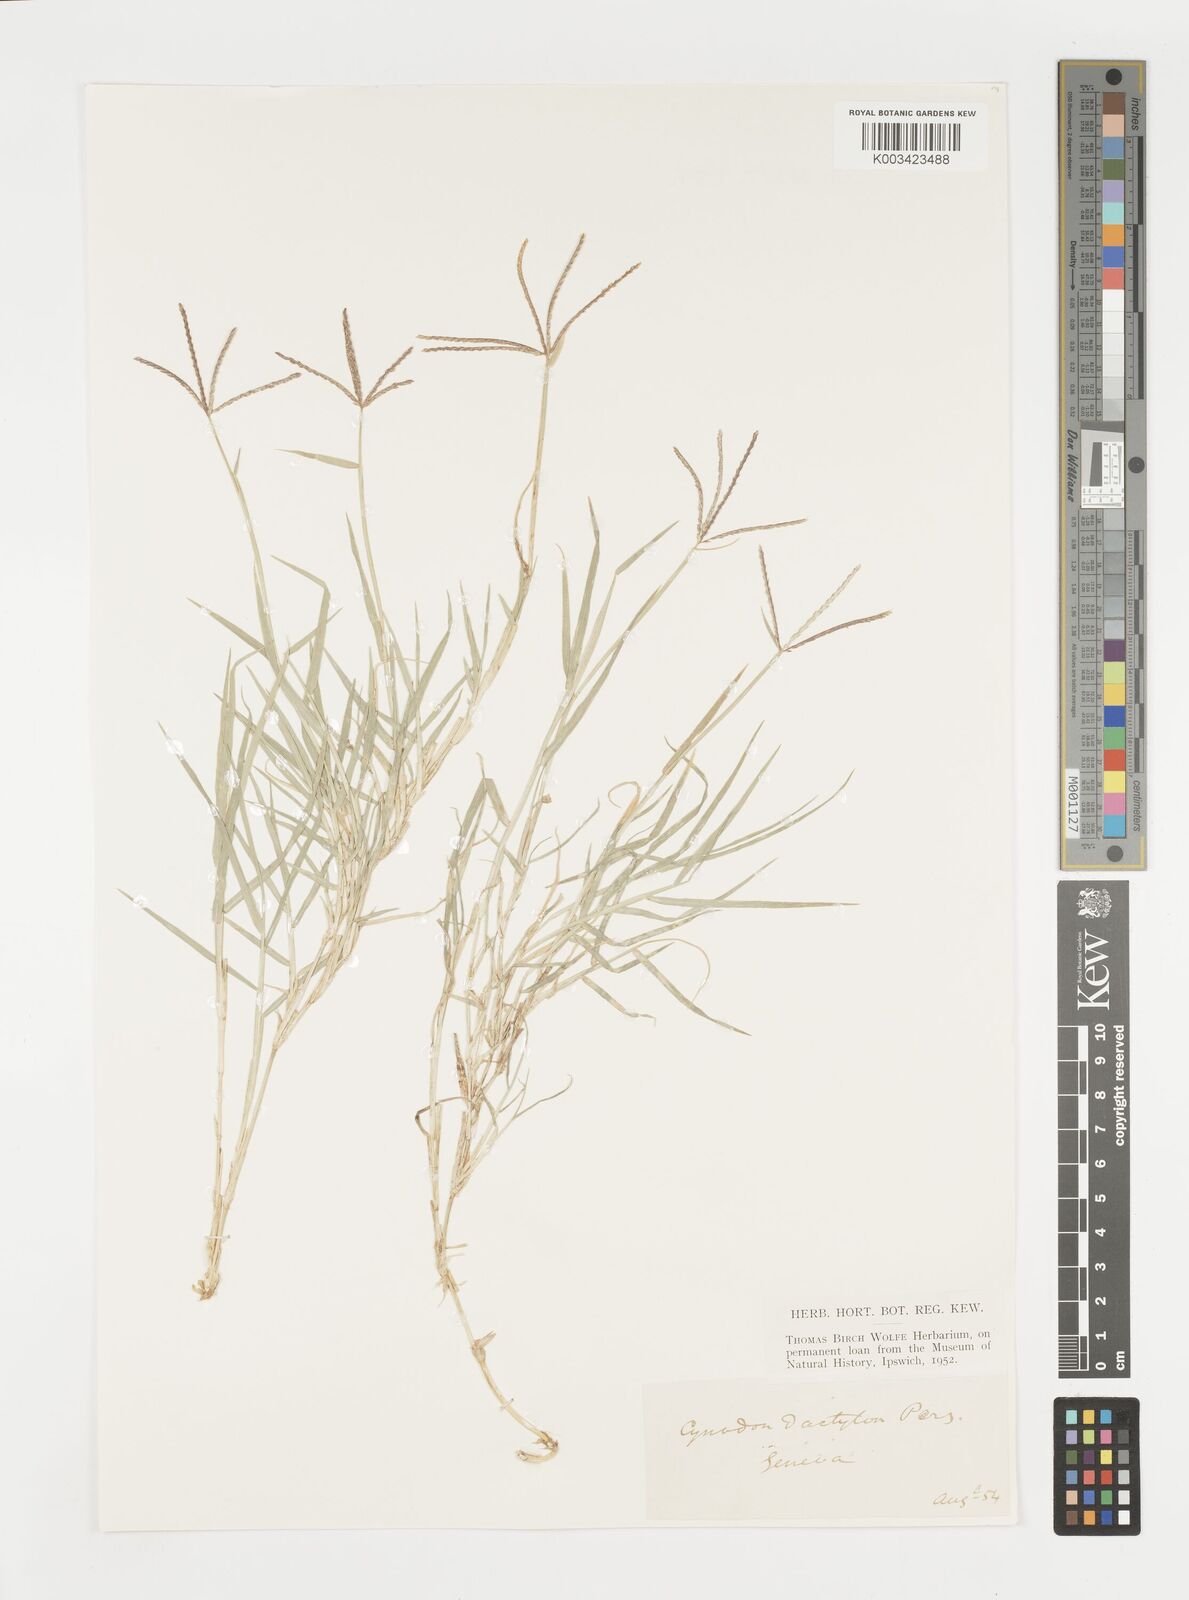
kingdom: Plantae
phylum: Tracheophyta
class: Liliopsida
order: Poales
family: Poaceae
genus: Cynodon
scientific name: Cynodon dactylon
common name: Bermuda grass
